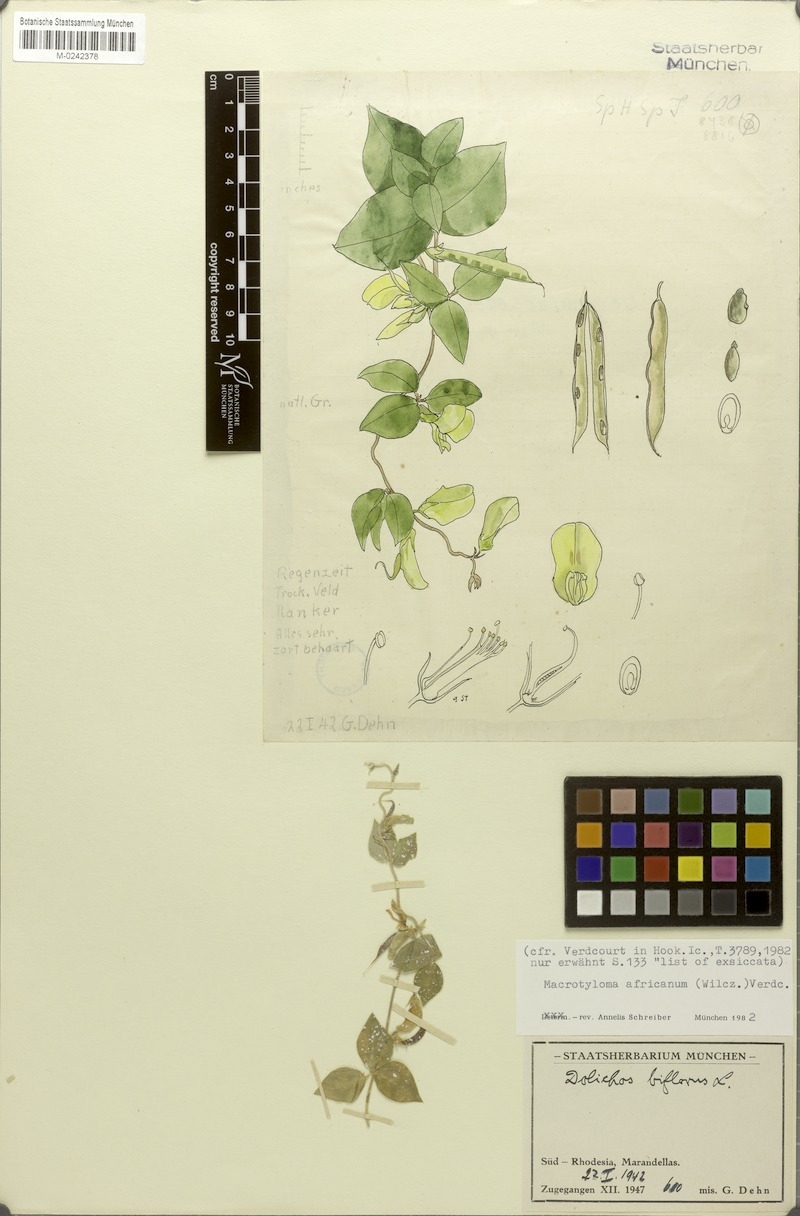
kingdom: Plantae
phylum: Tracheophyta
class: Magnoliopsida
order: Fabales
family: Fabaceae
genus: Macrotyloma
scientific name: Macrotyloma africanum
